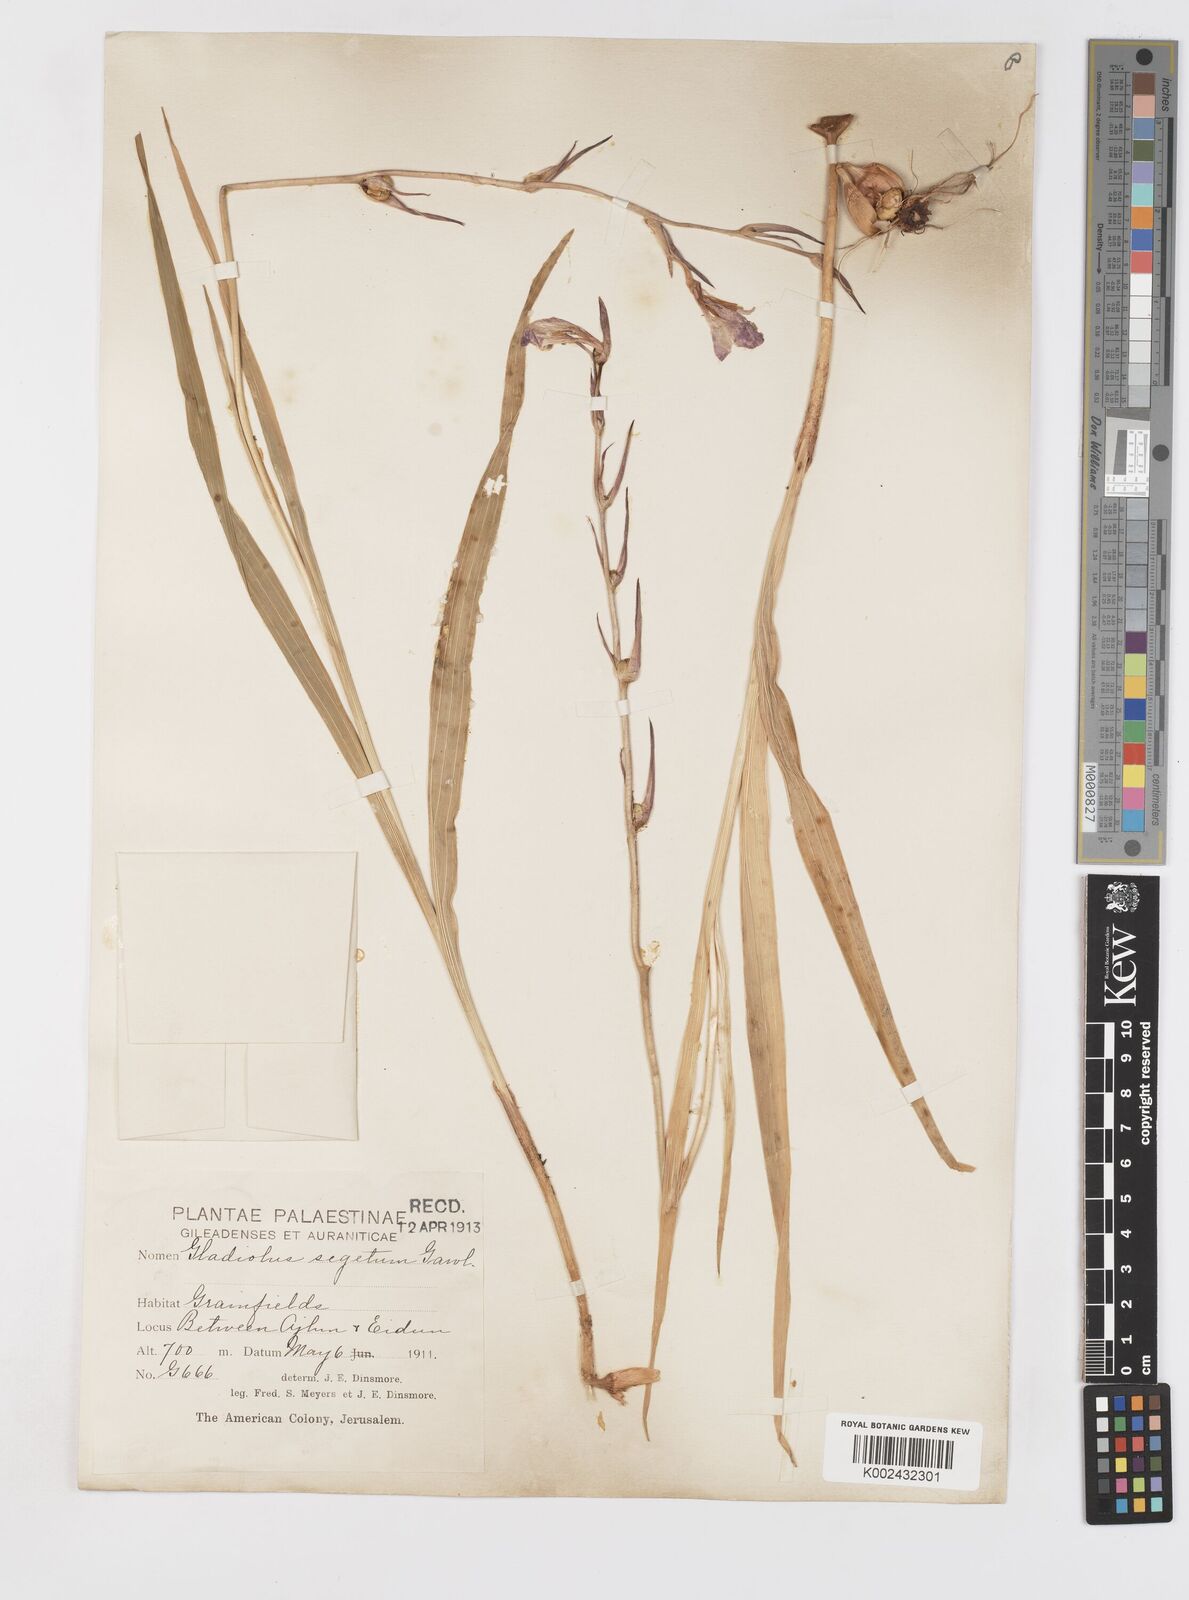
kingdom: Plantae
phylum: Tracheophyta
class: Liliopsida
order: Asparagales
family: Iridaceae
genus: Gladiolus
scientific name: Gladiolus italicus
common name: Field gladiolus
